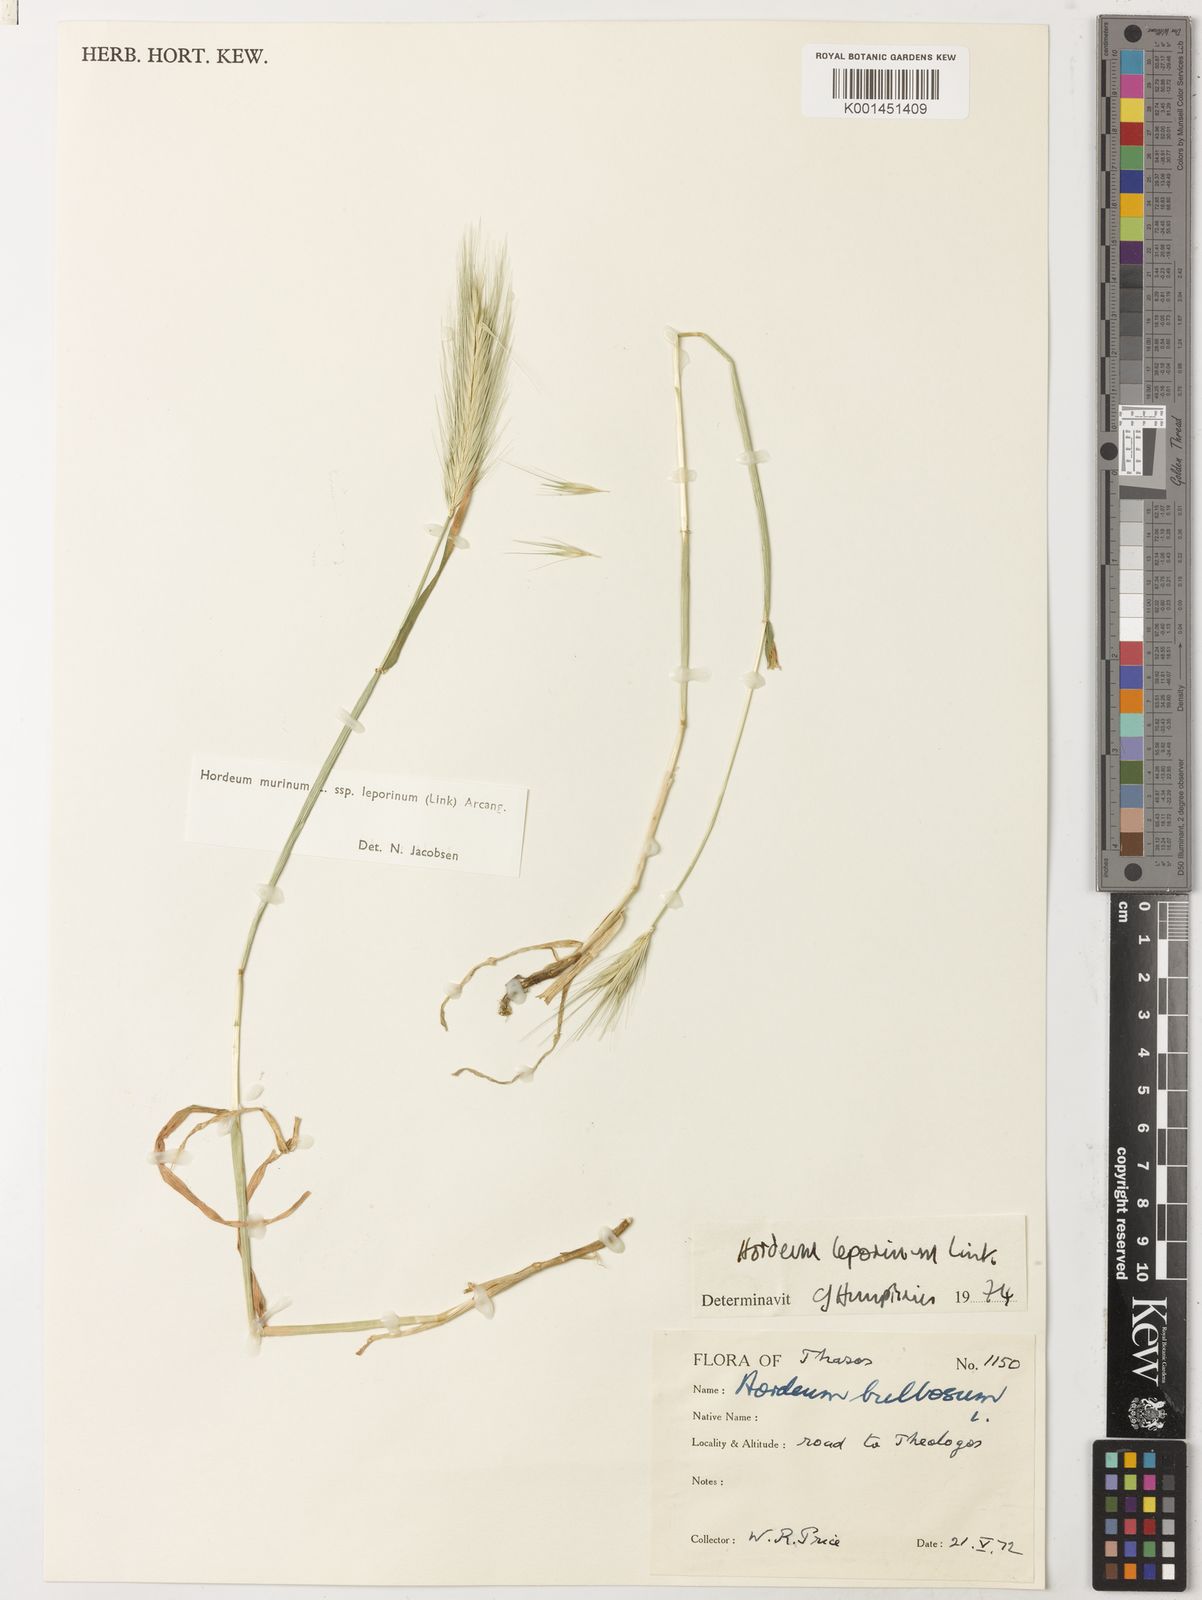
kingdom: Plantae
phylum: Tracheophyta
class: Liliopsida
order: Poales
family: Poaceae
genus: Hordeum
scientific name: Hordeum murinum
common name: Wall barley
